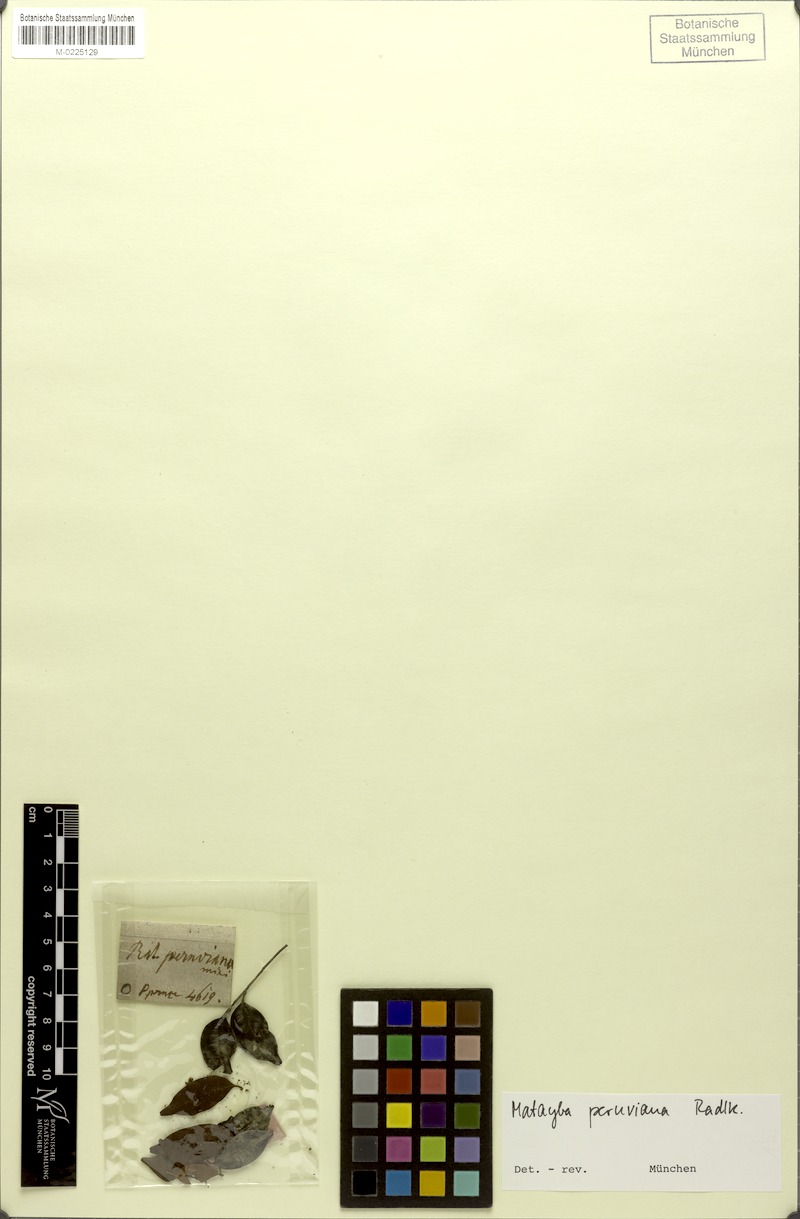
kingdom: Plantae
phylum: Tracheophyta
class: Magnoliopsida
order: Sapindales
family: Sapindaceae
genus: Matayba
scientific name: Matayba peruviana
